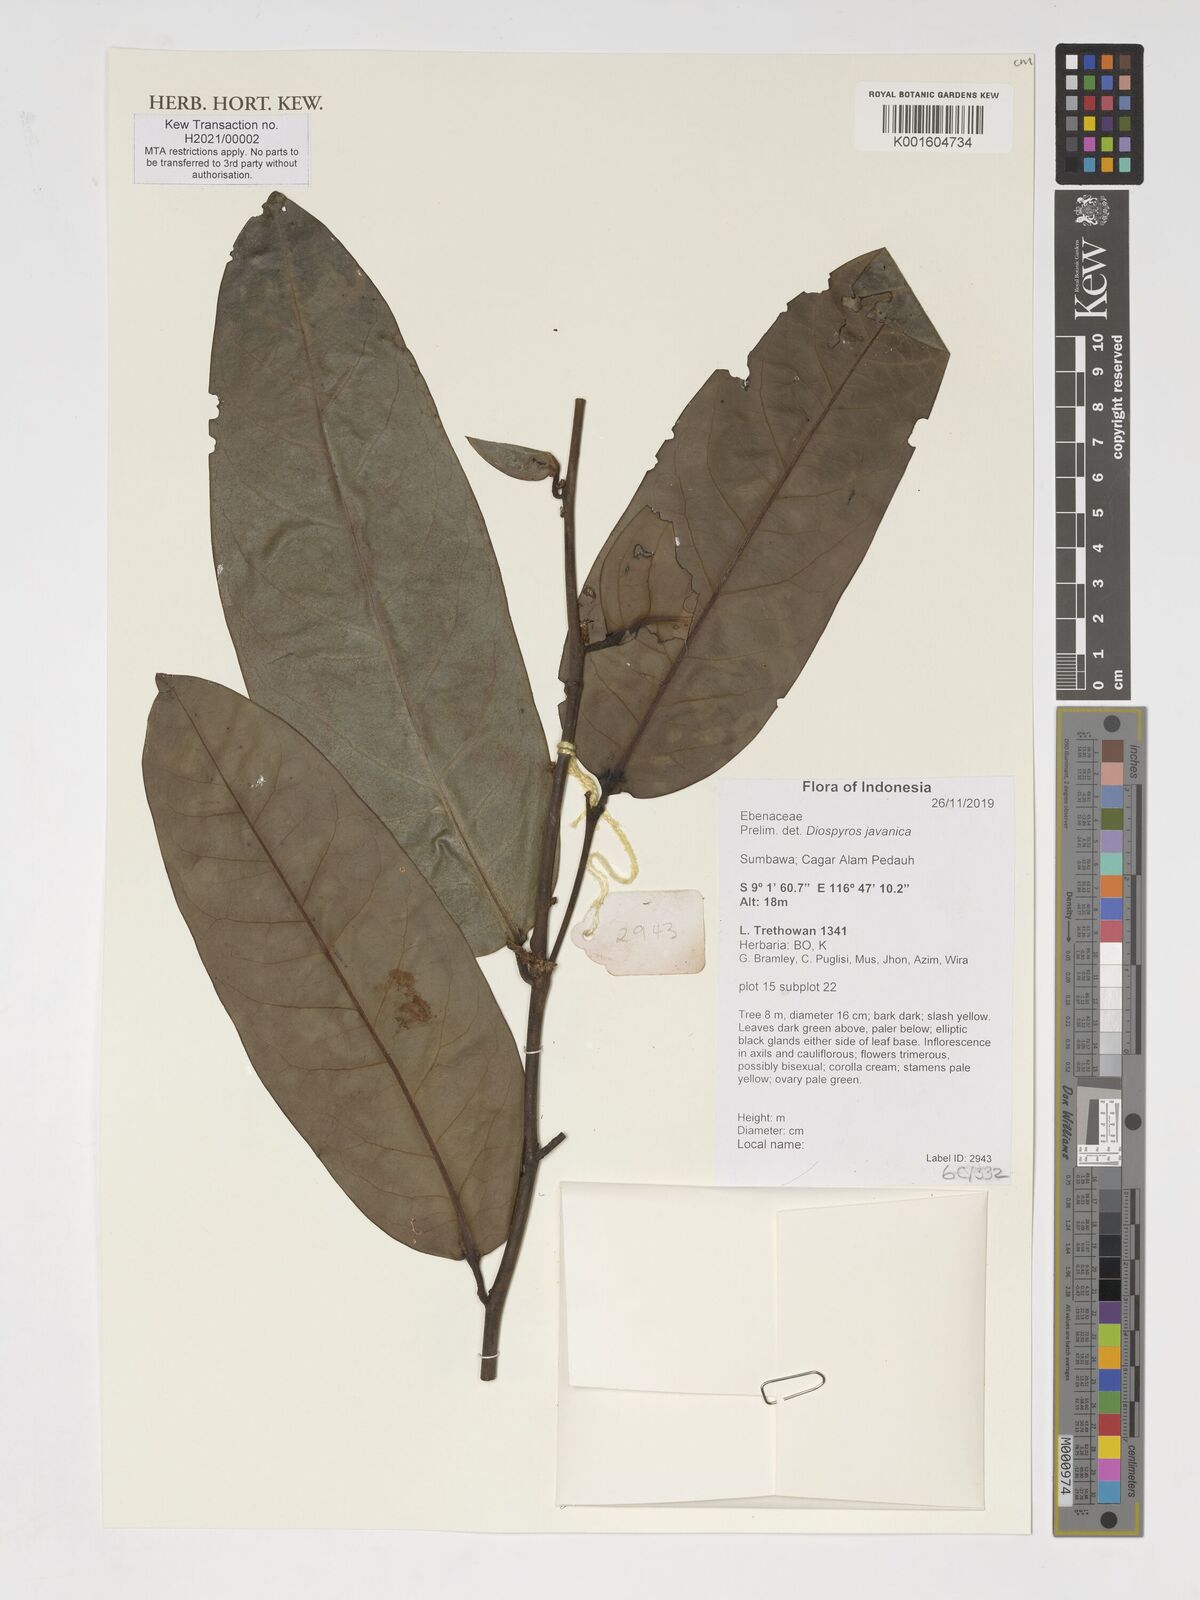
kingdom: Plantae
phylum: Tracheophyta
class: Magnoliopsida
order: Ericales
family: Ebenaceae
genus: Diospyros
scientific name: Diospyros javanica
